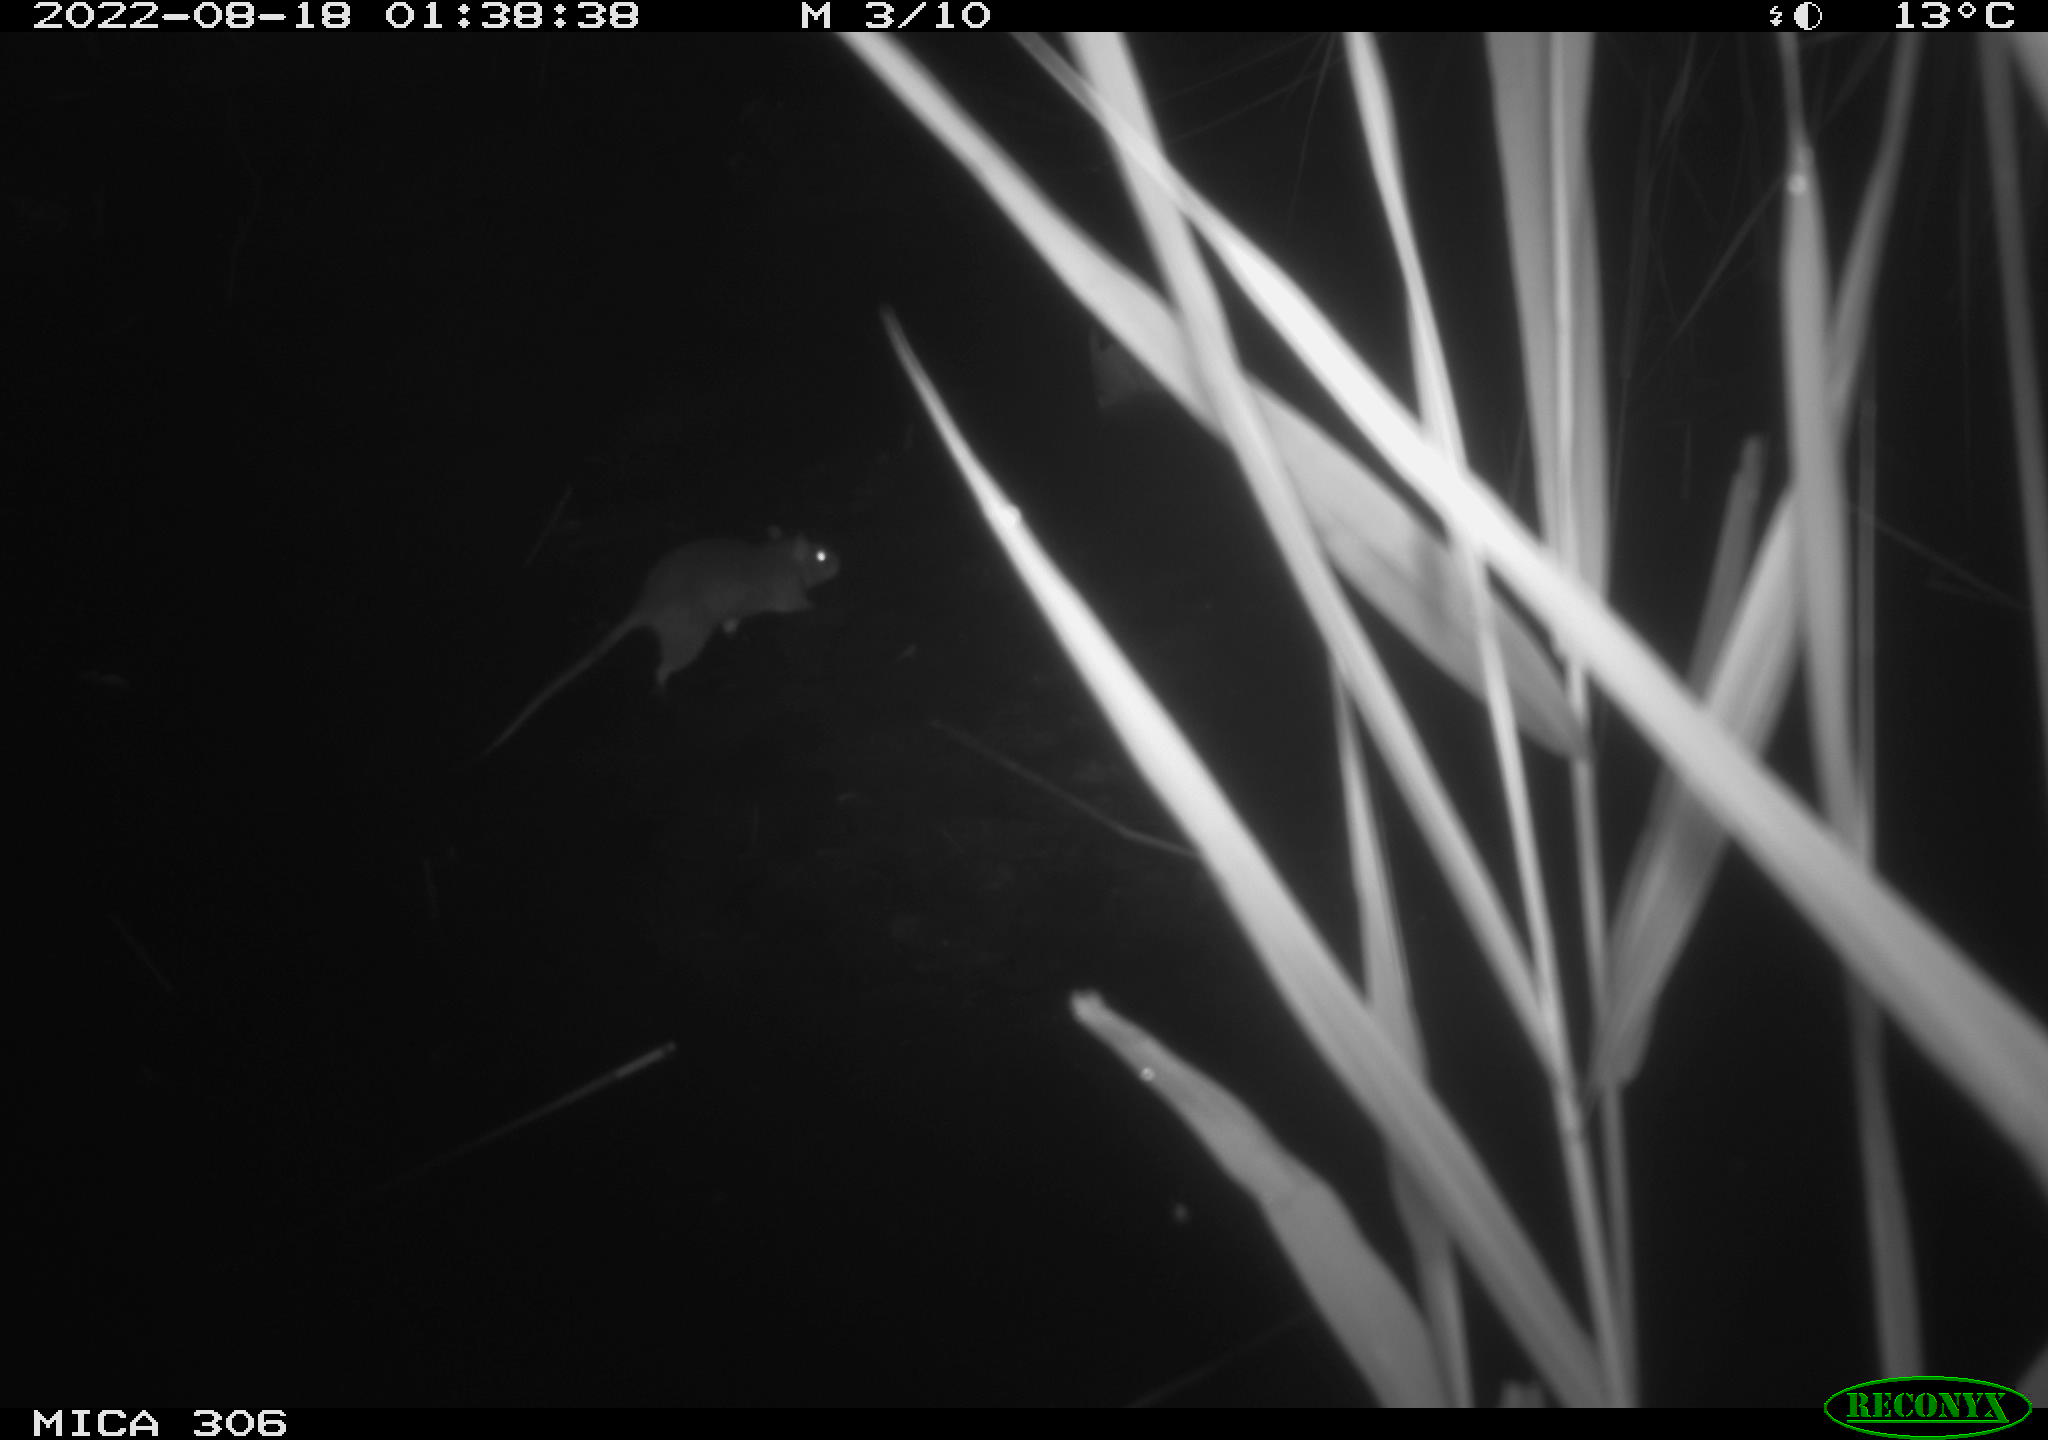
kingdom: Animalia
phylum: Chordata
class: Mammalia
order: Rodentia
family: Muridae
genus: Rattus
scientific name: Rattus norvegicus
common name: Brown rat
